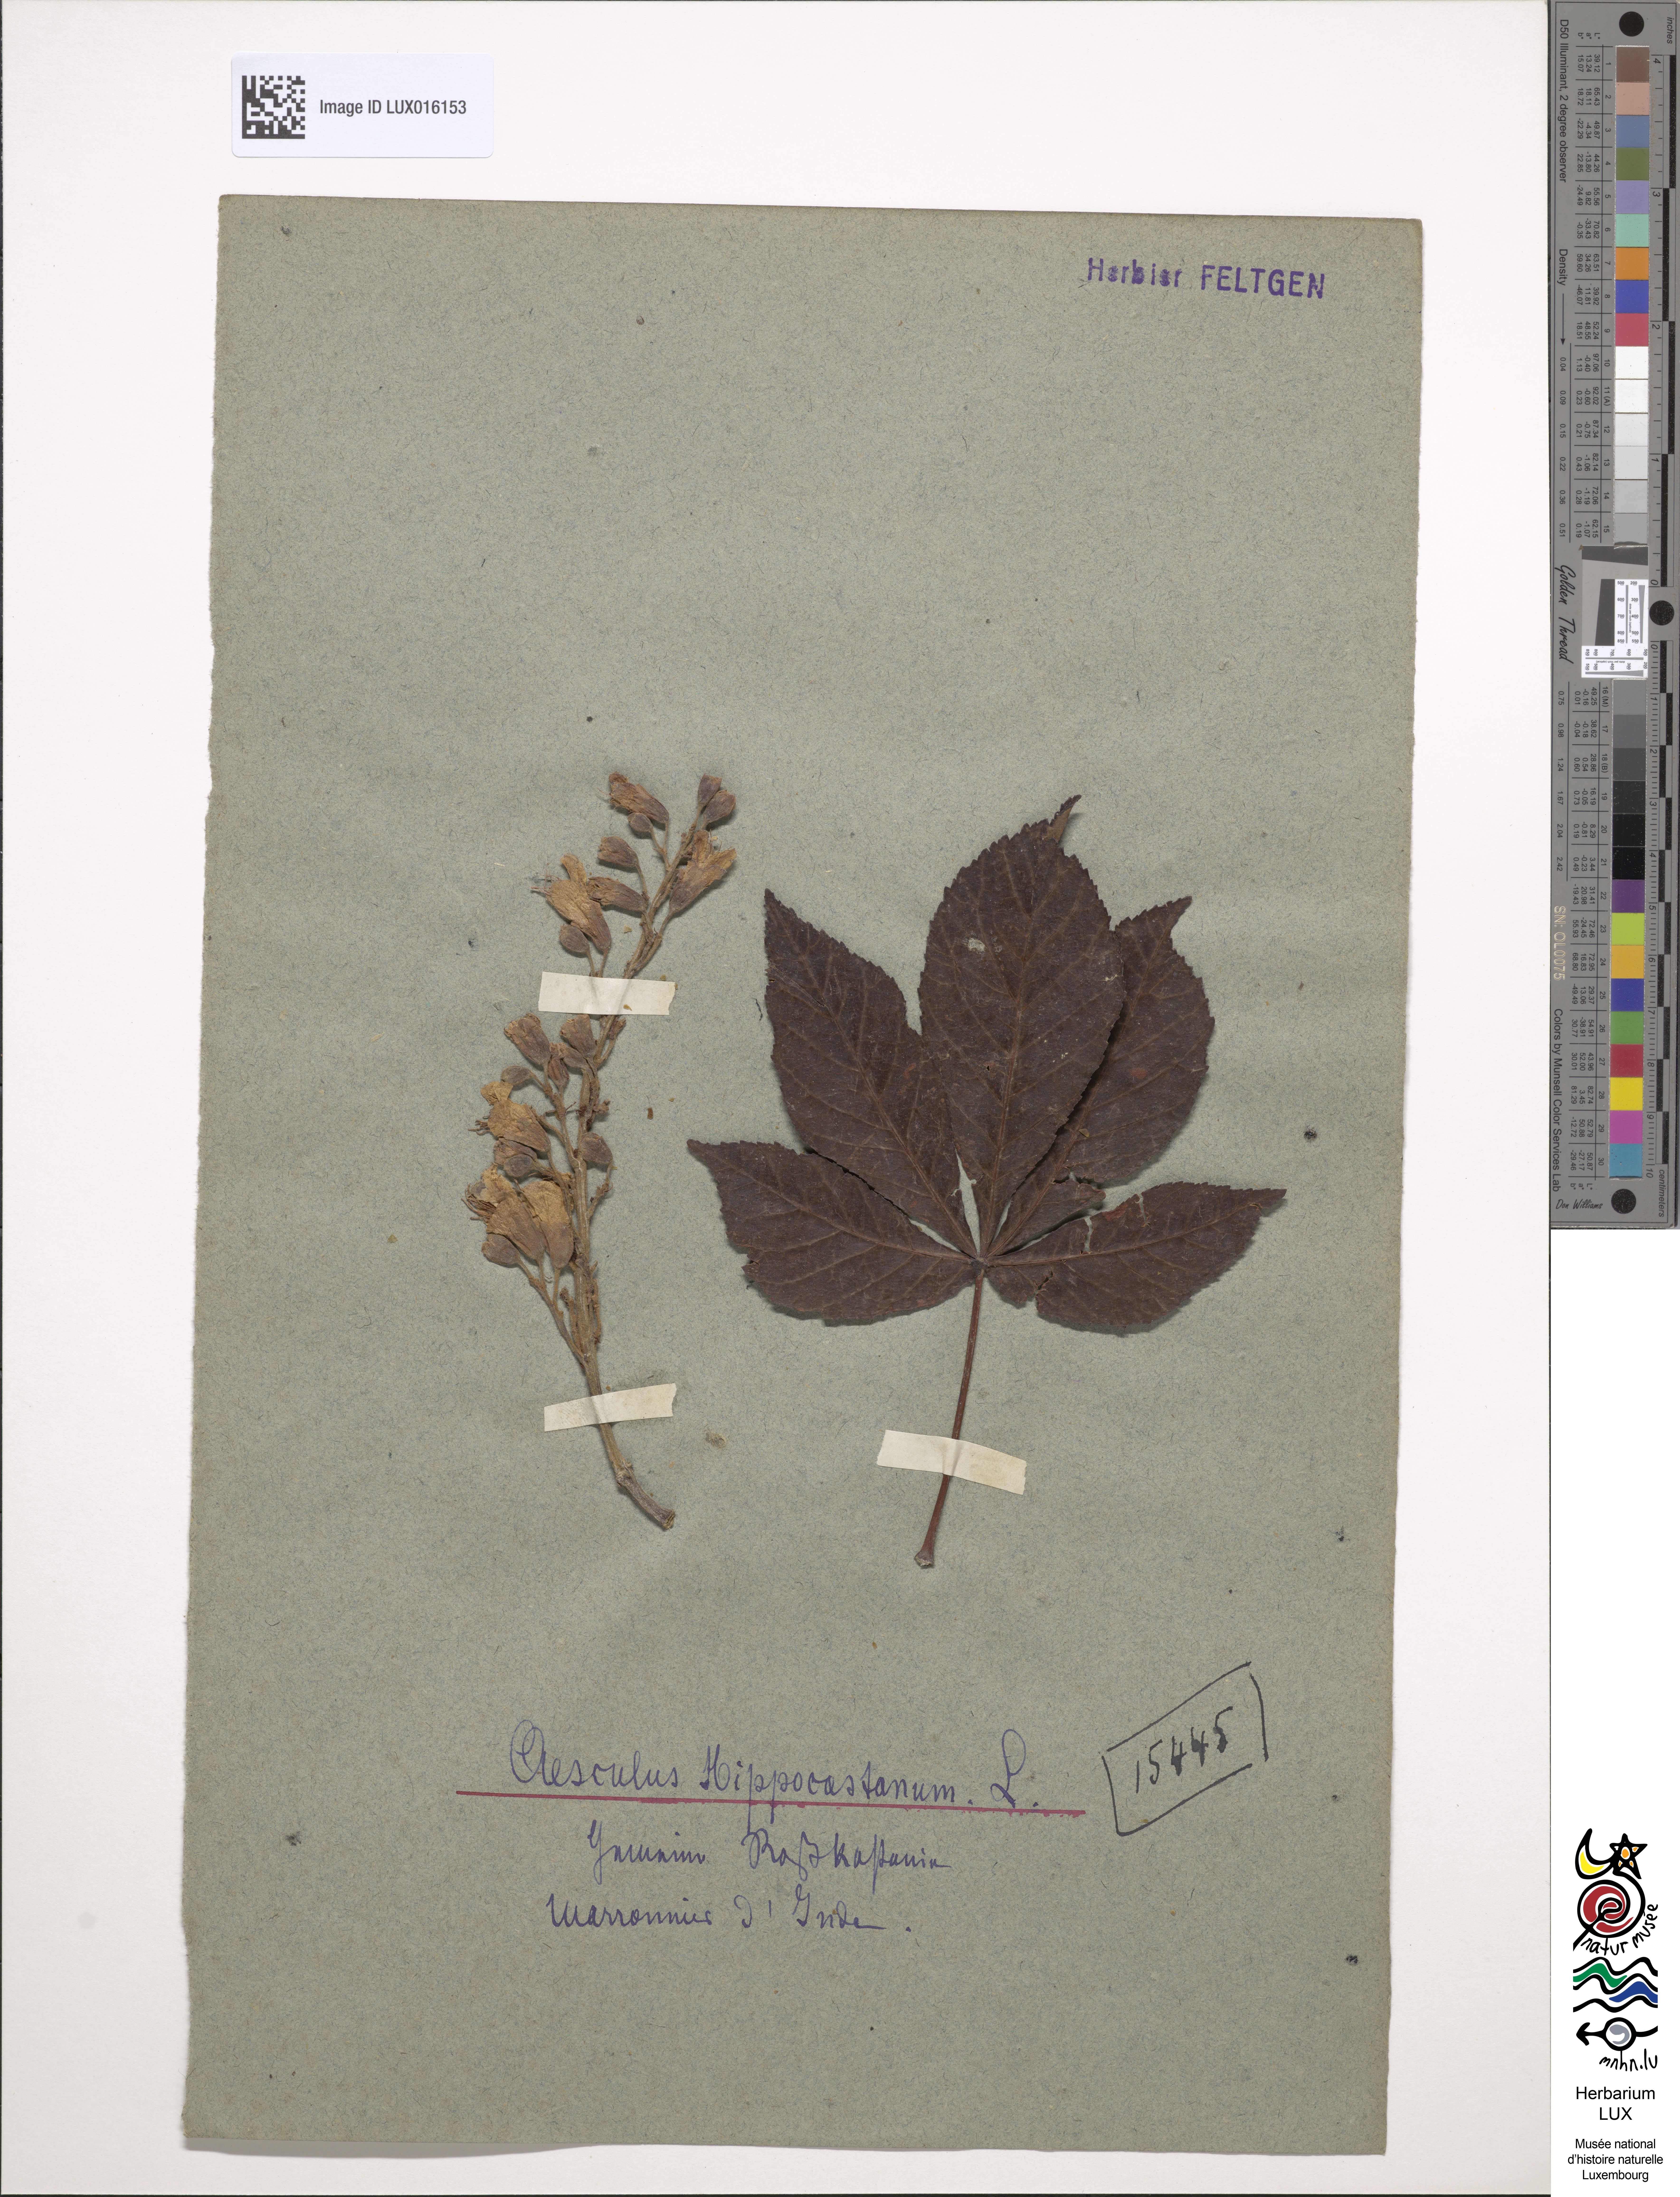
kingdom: Plantae
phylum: Tracheophyta
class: Magnoliopsida
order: Sapindales
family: Sapindaceae
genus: Aesculus
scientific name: Aesculus hippocastanum
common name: Horse-chestnut
